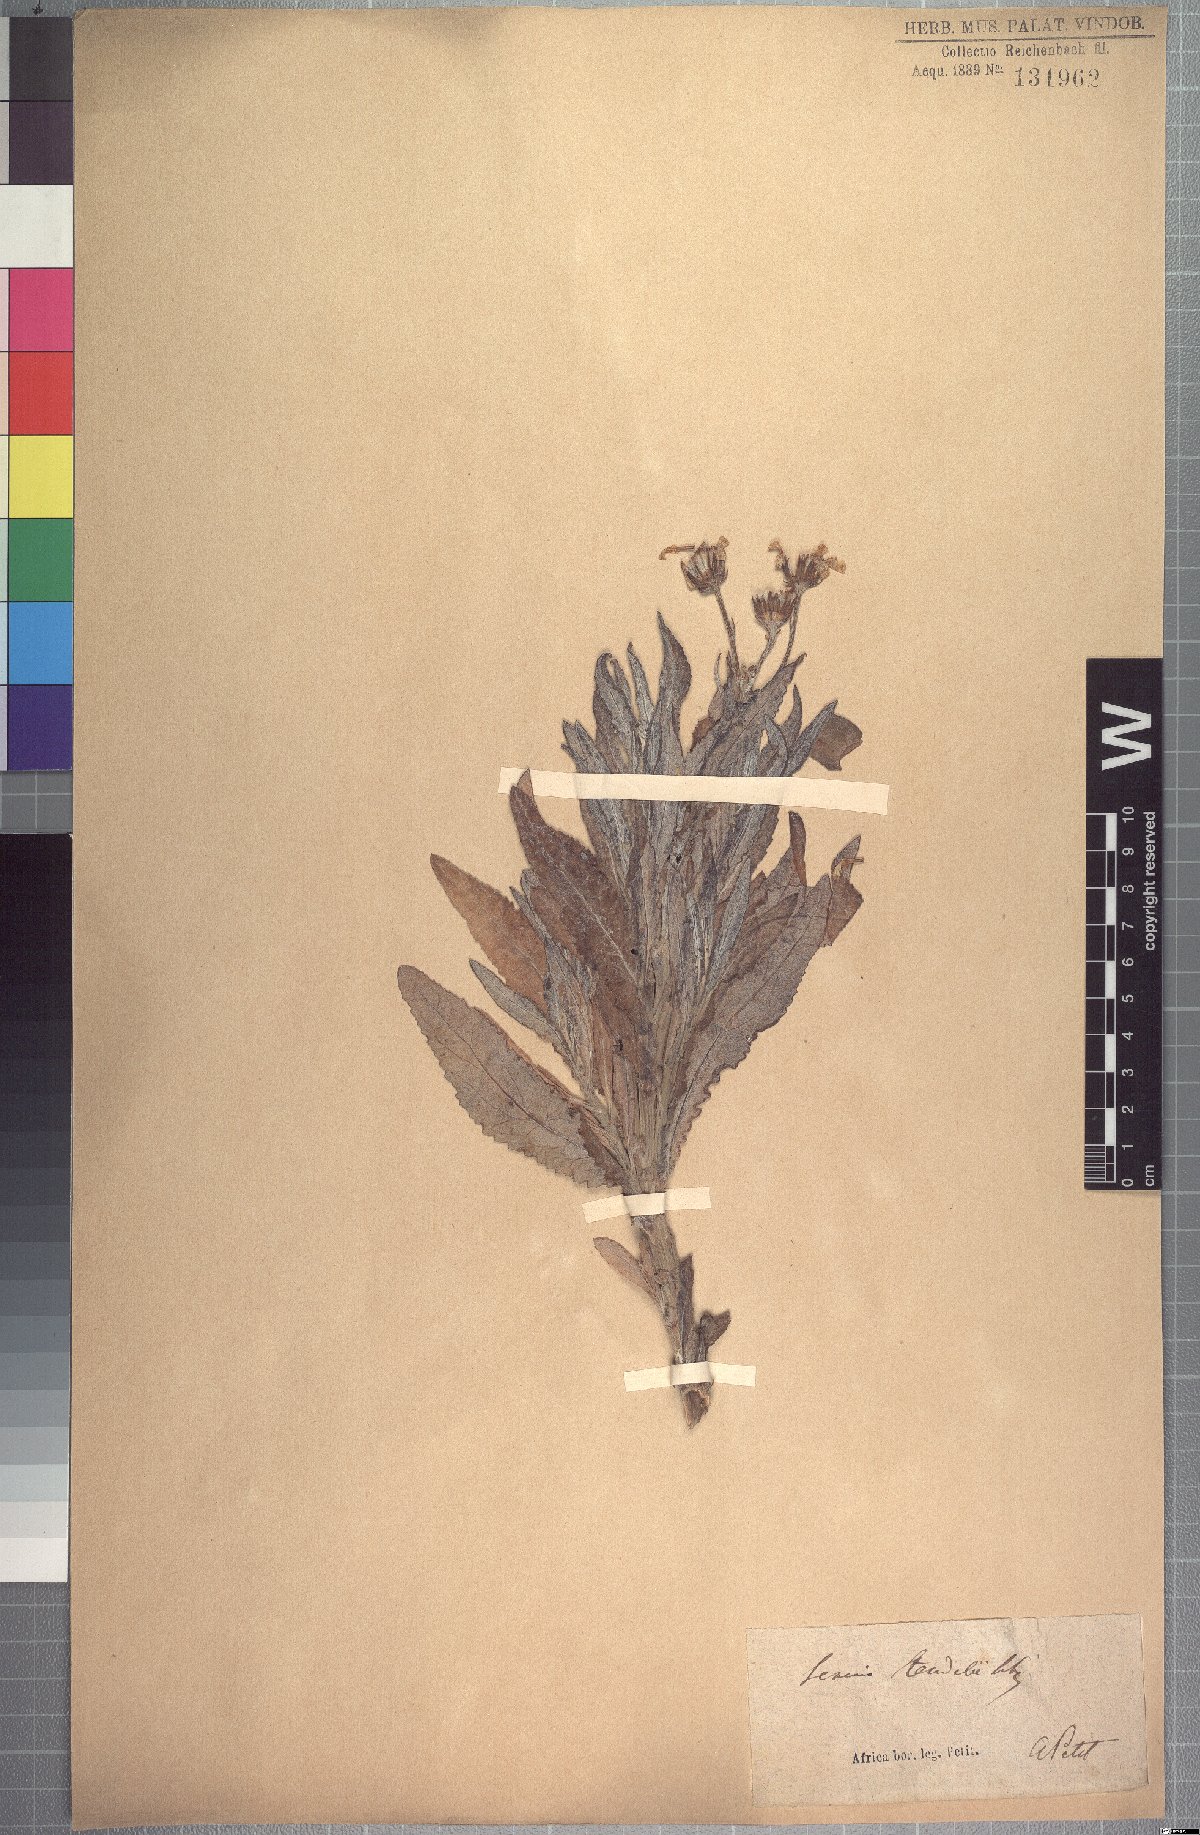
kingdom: Plantae
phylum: Tracheophyta
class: Magnoliopsida
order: Asterales
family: Asteraceae
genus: Senecio
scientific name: Senecio steudelii
